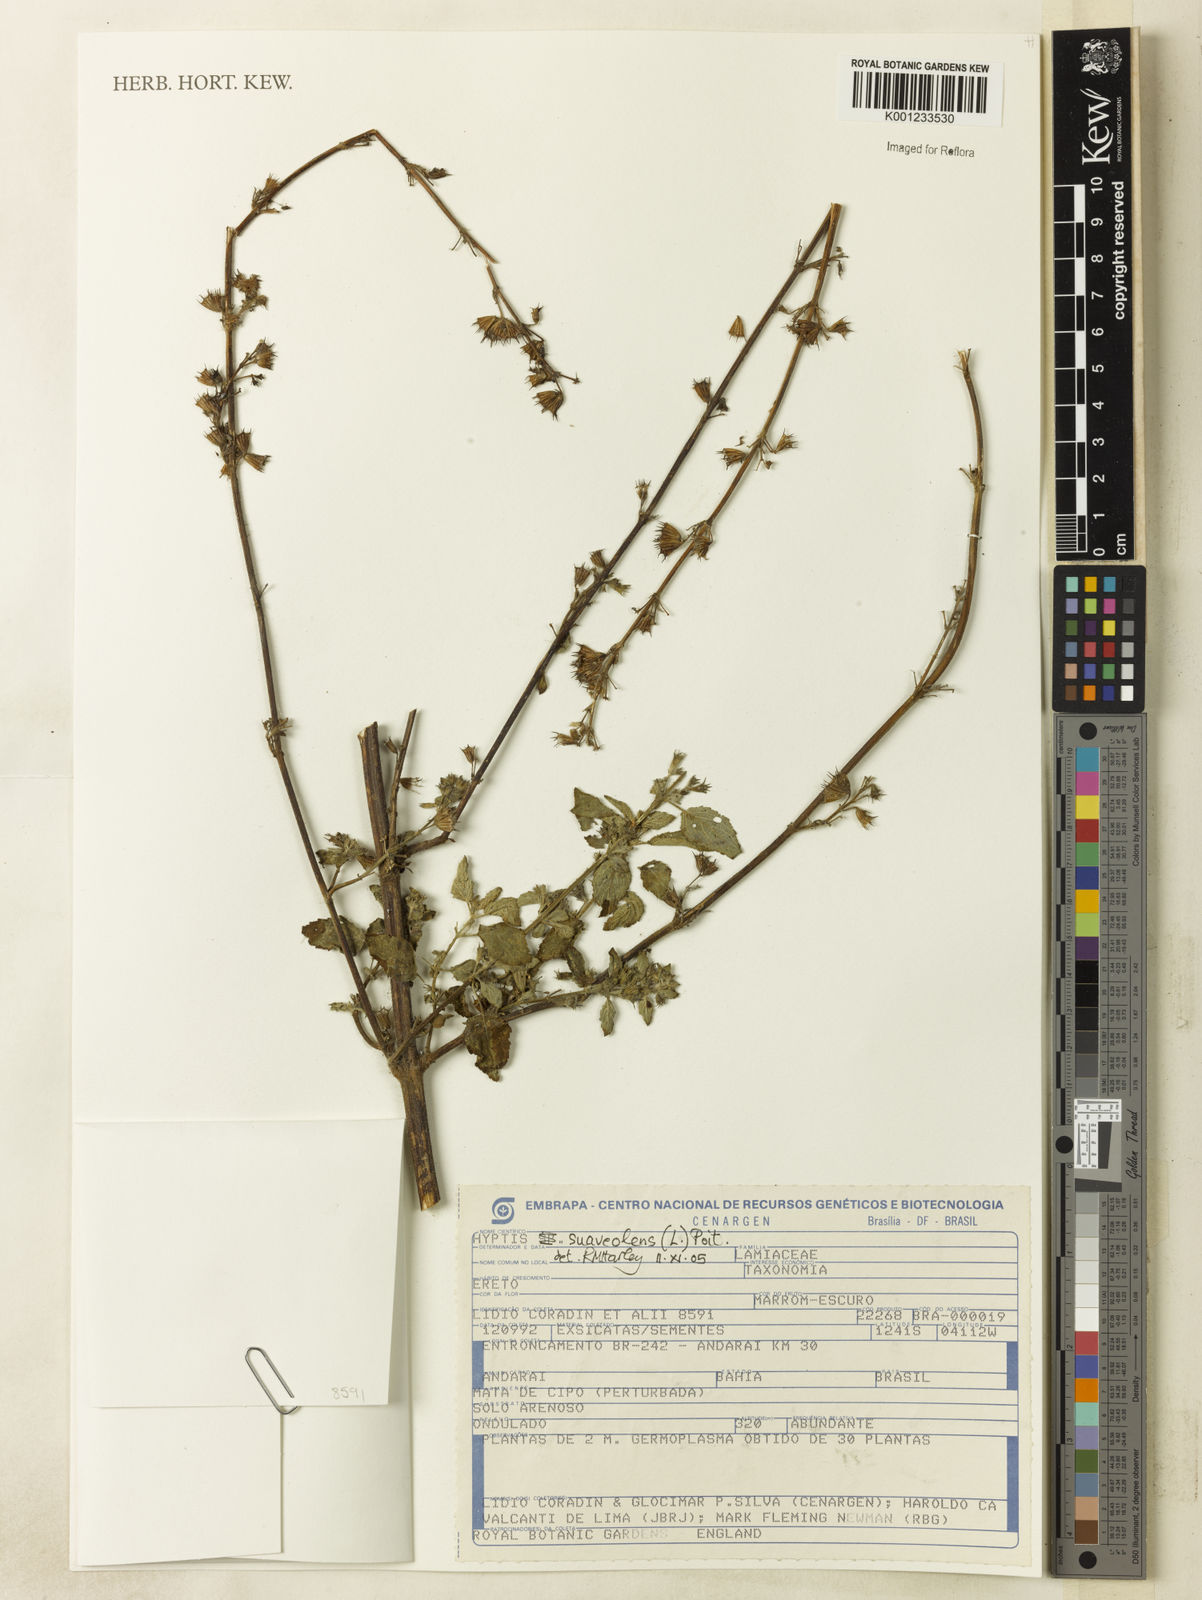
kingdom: Plantae
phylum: Tracheophyta
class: Magnoliopsida
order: Lamiales
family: Lamiaceae
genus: Mesosphaerum
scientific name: Mesosphaerum suaveolens
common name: Pignut
